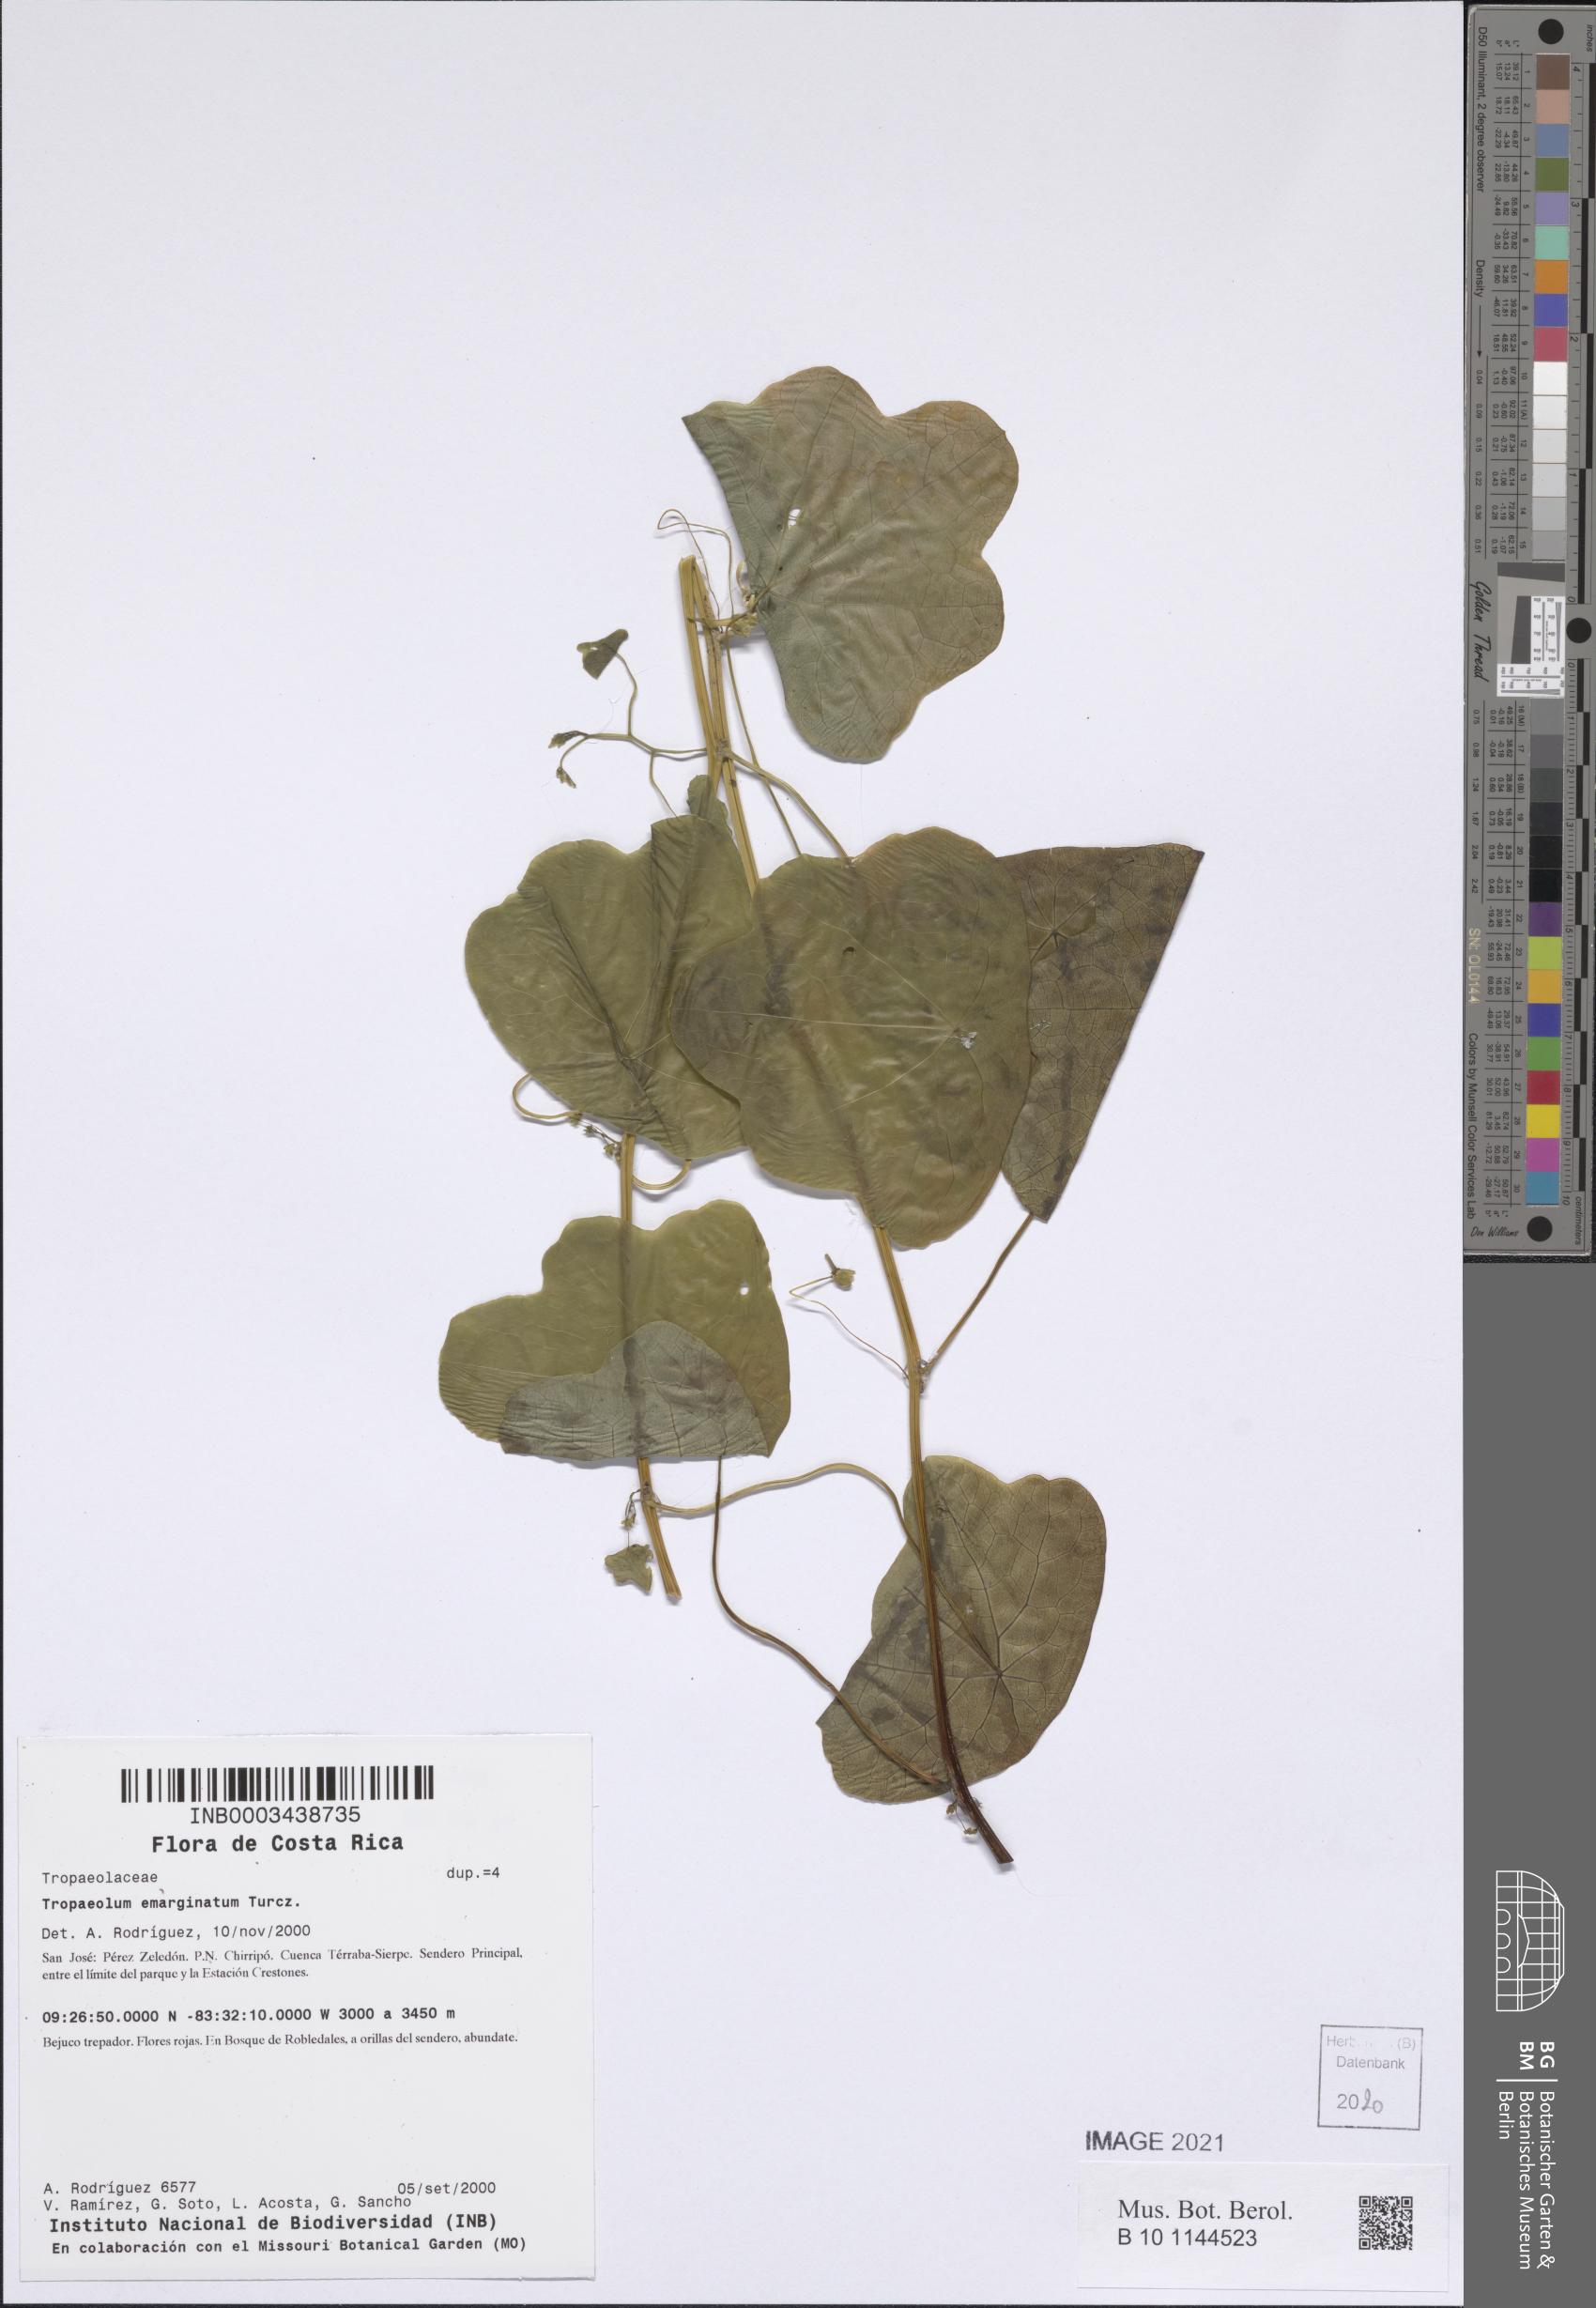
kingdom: Plantae
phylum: Tracheophyta
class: Magnoliopsida
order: Brassicales
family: Tropaeolaceae
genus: Tropaeolum
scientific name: Tropaeolum emarginatum
